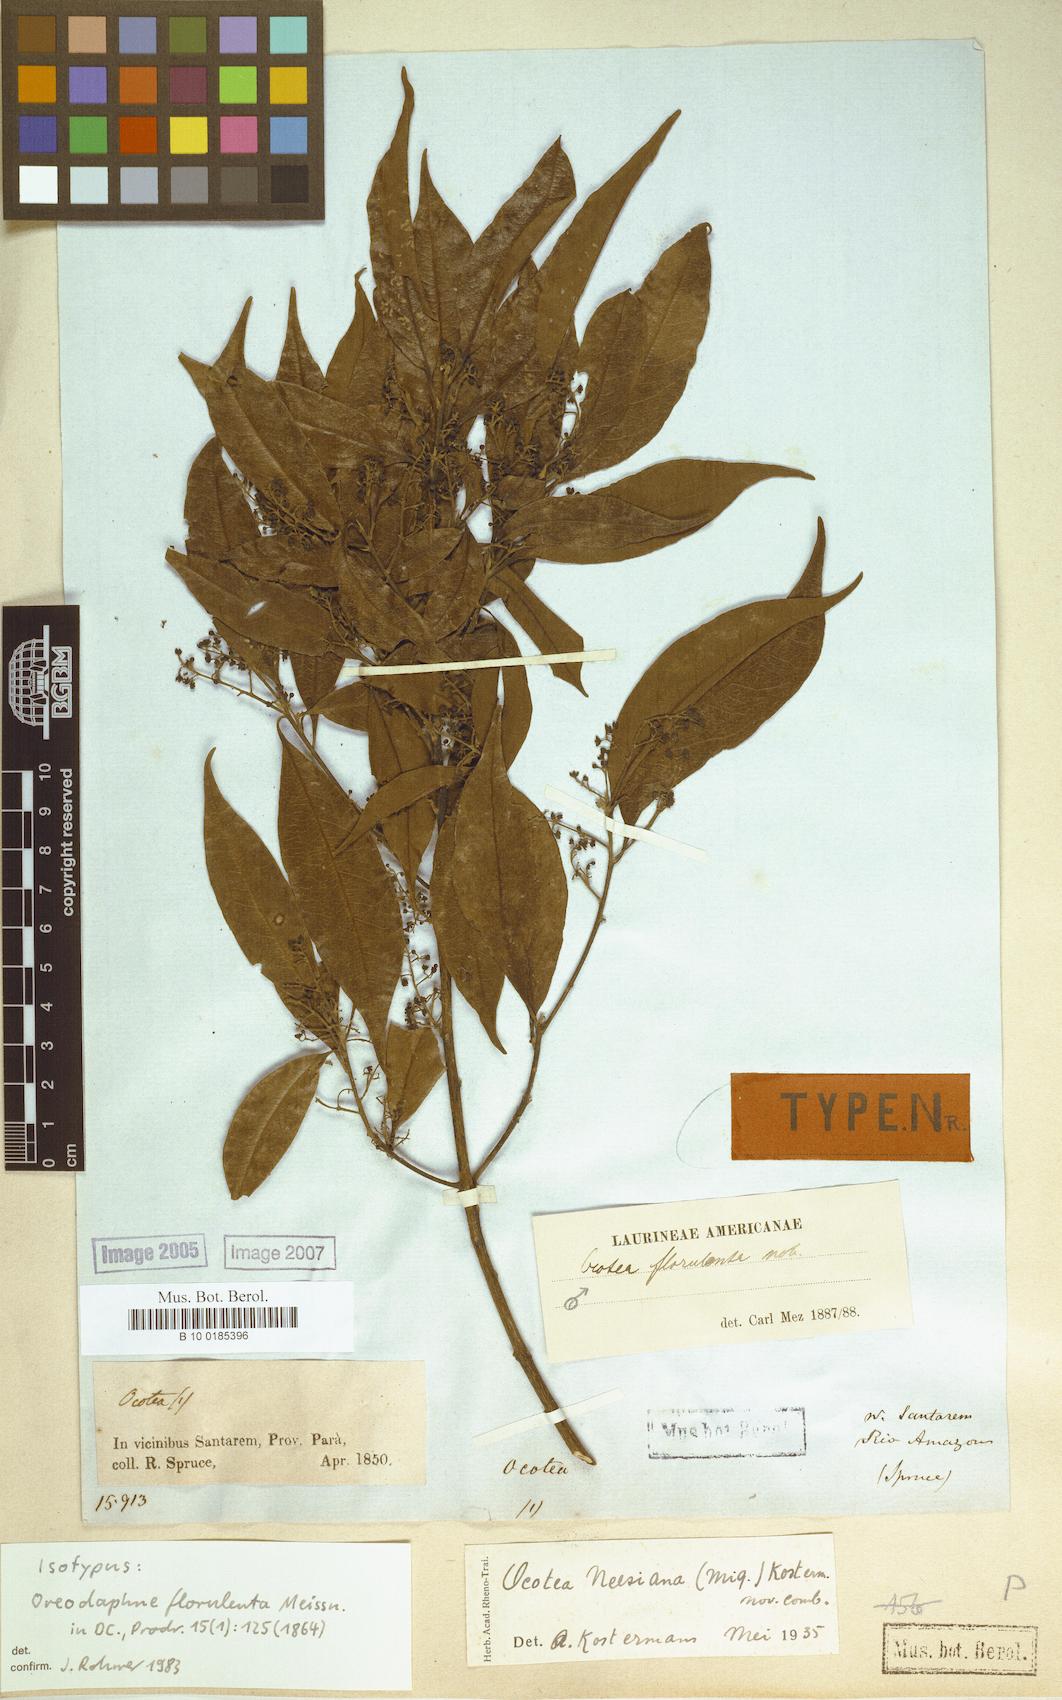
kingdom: Plantae
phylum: Tracheophyta
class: Magnoliopsida
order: Laurales
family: Lauraceae
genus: Ocotea
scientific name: Ocotea neesiana
